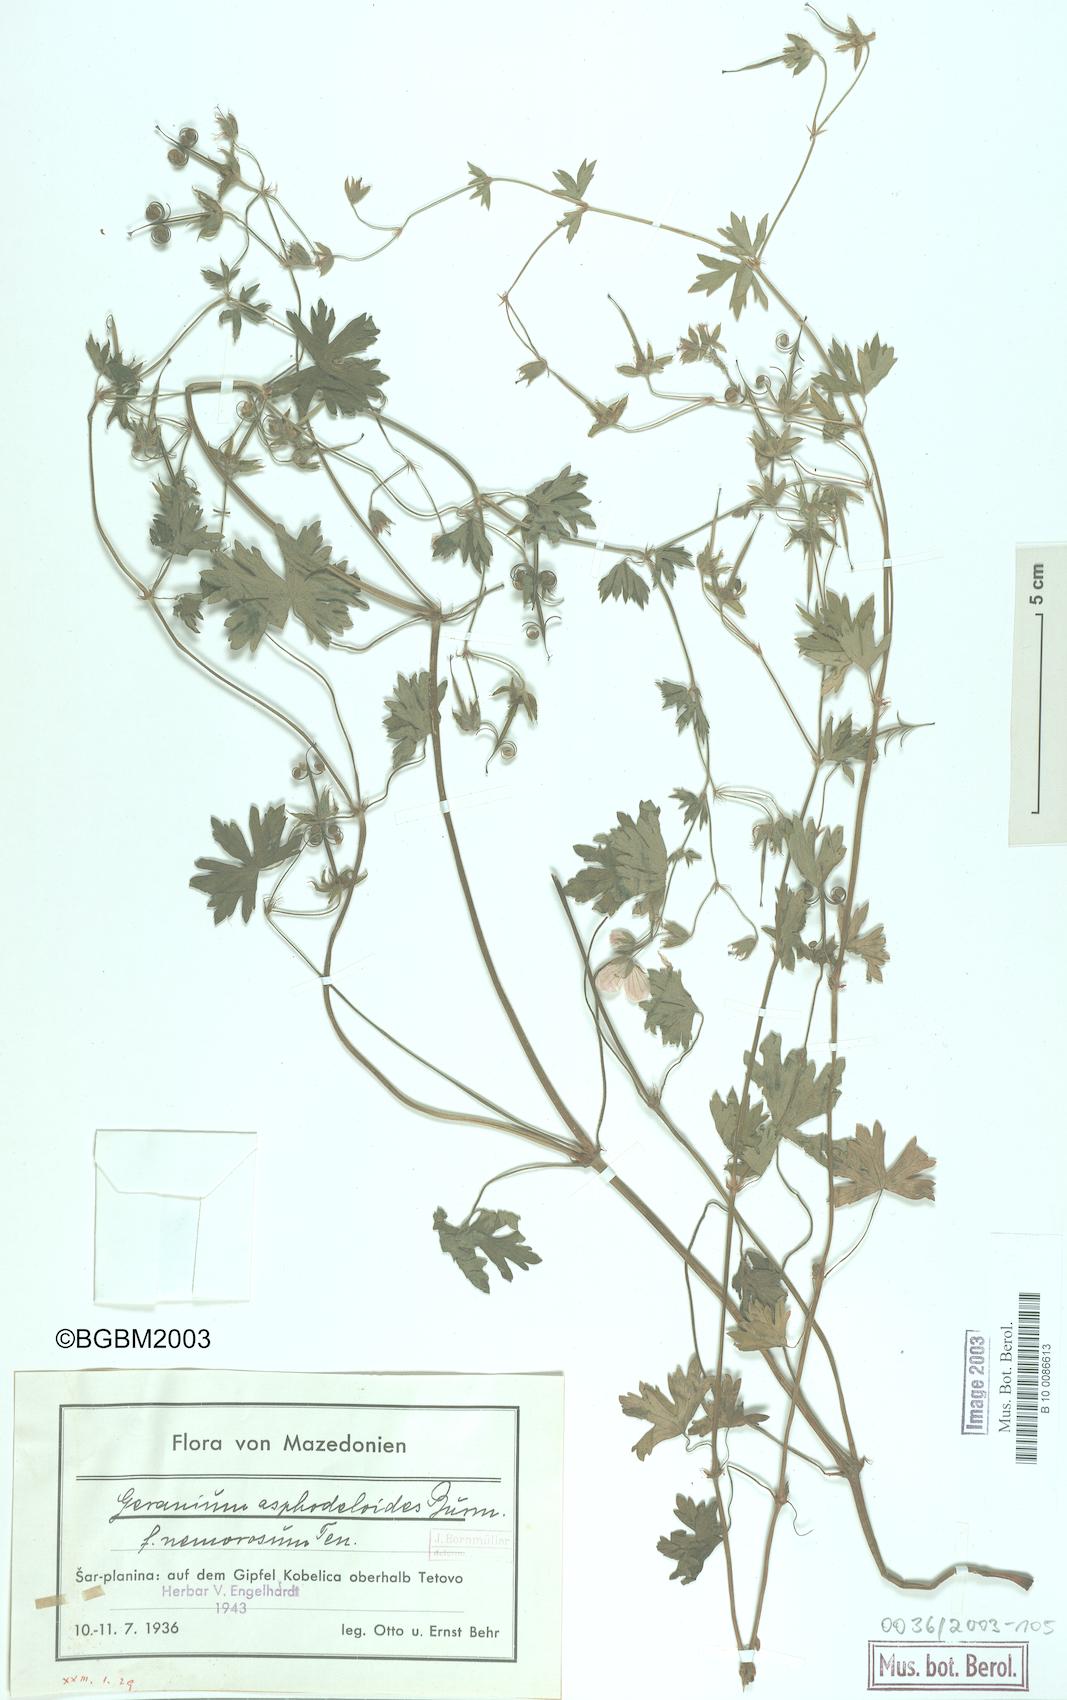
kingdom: Plantae
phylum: Tracheophyta
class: Magnoliopsida
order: Geraniales
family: Geraniaceae
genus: Geranium
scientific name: Geranium asphodeloides
